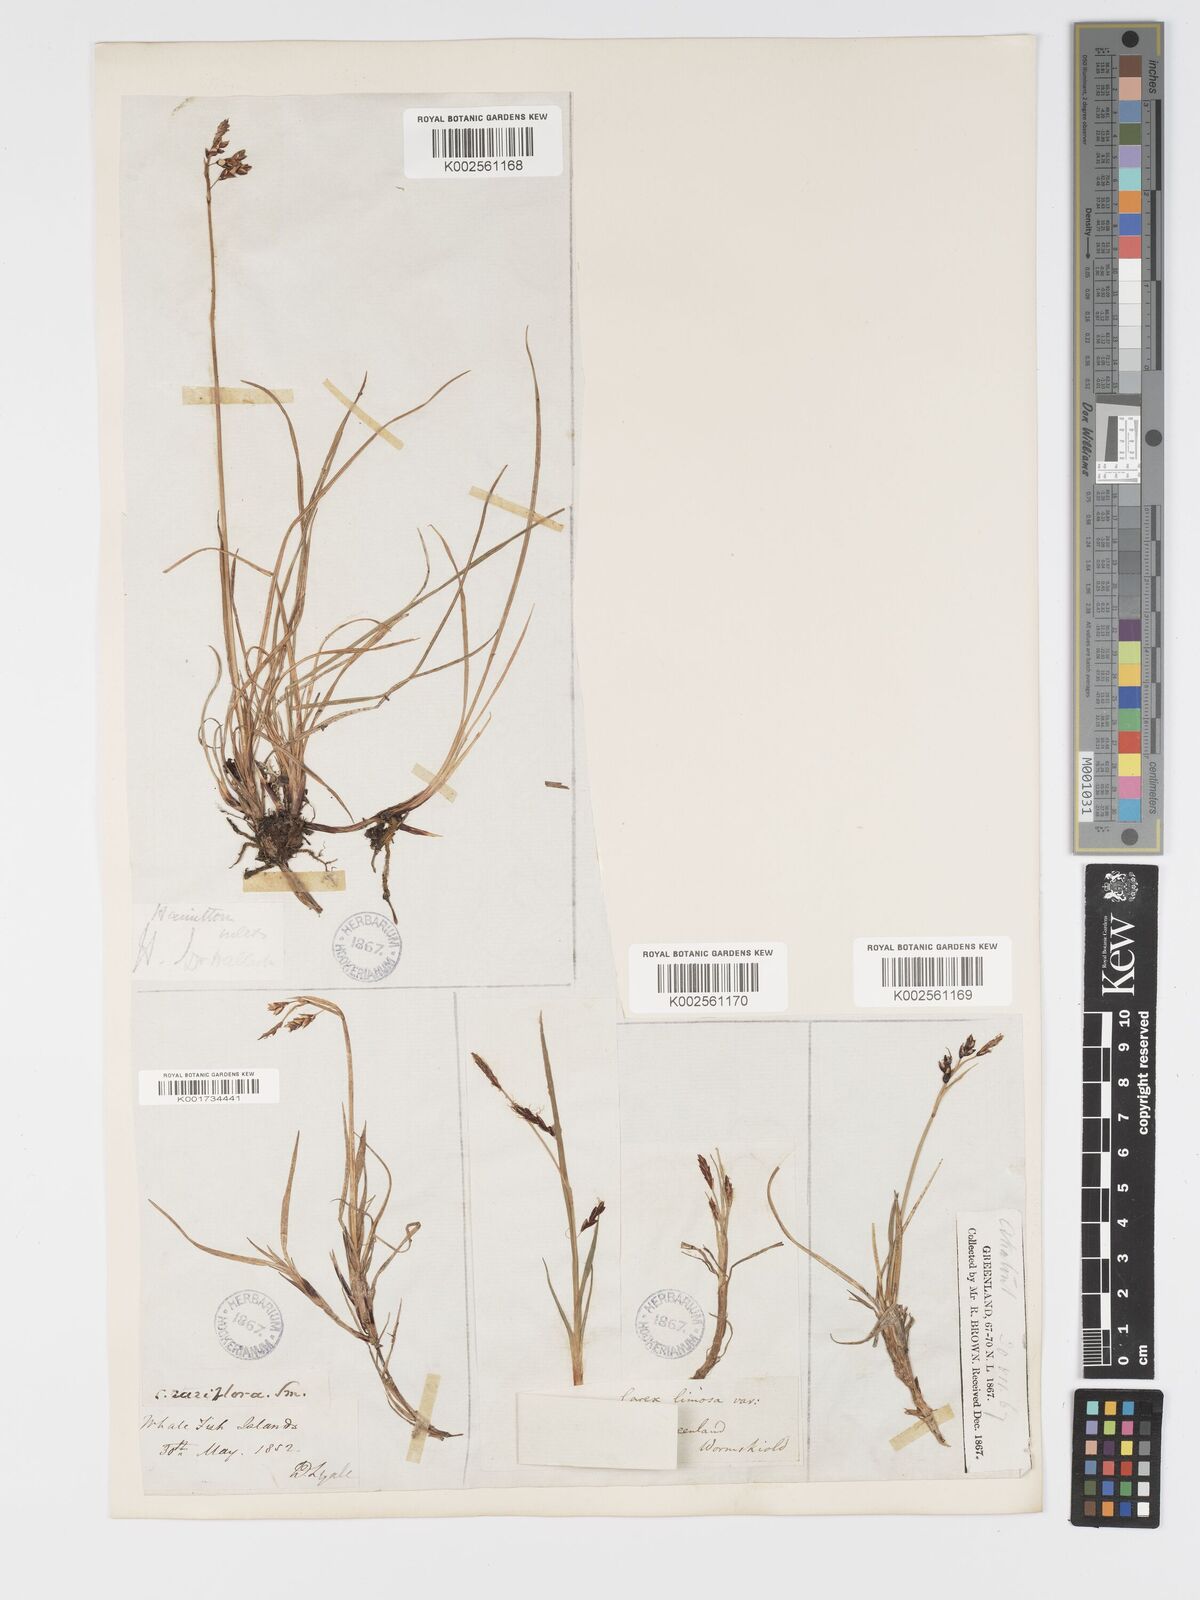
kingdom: Plantae
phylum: Tracheophyta
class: Liliopsida
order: Poales
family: Cyperaceae
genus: Carex
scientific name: Carex rariflora
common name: Loose-flowered alpine sedge
